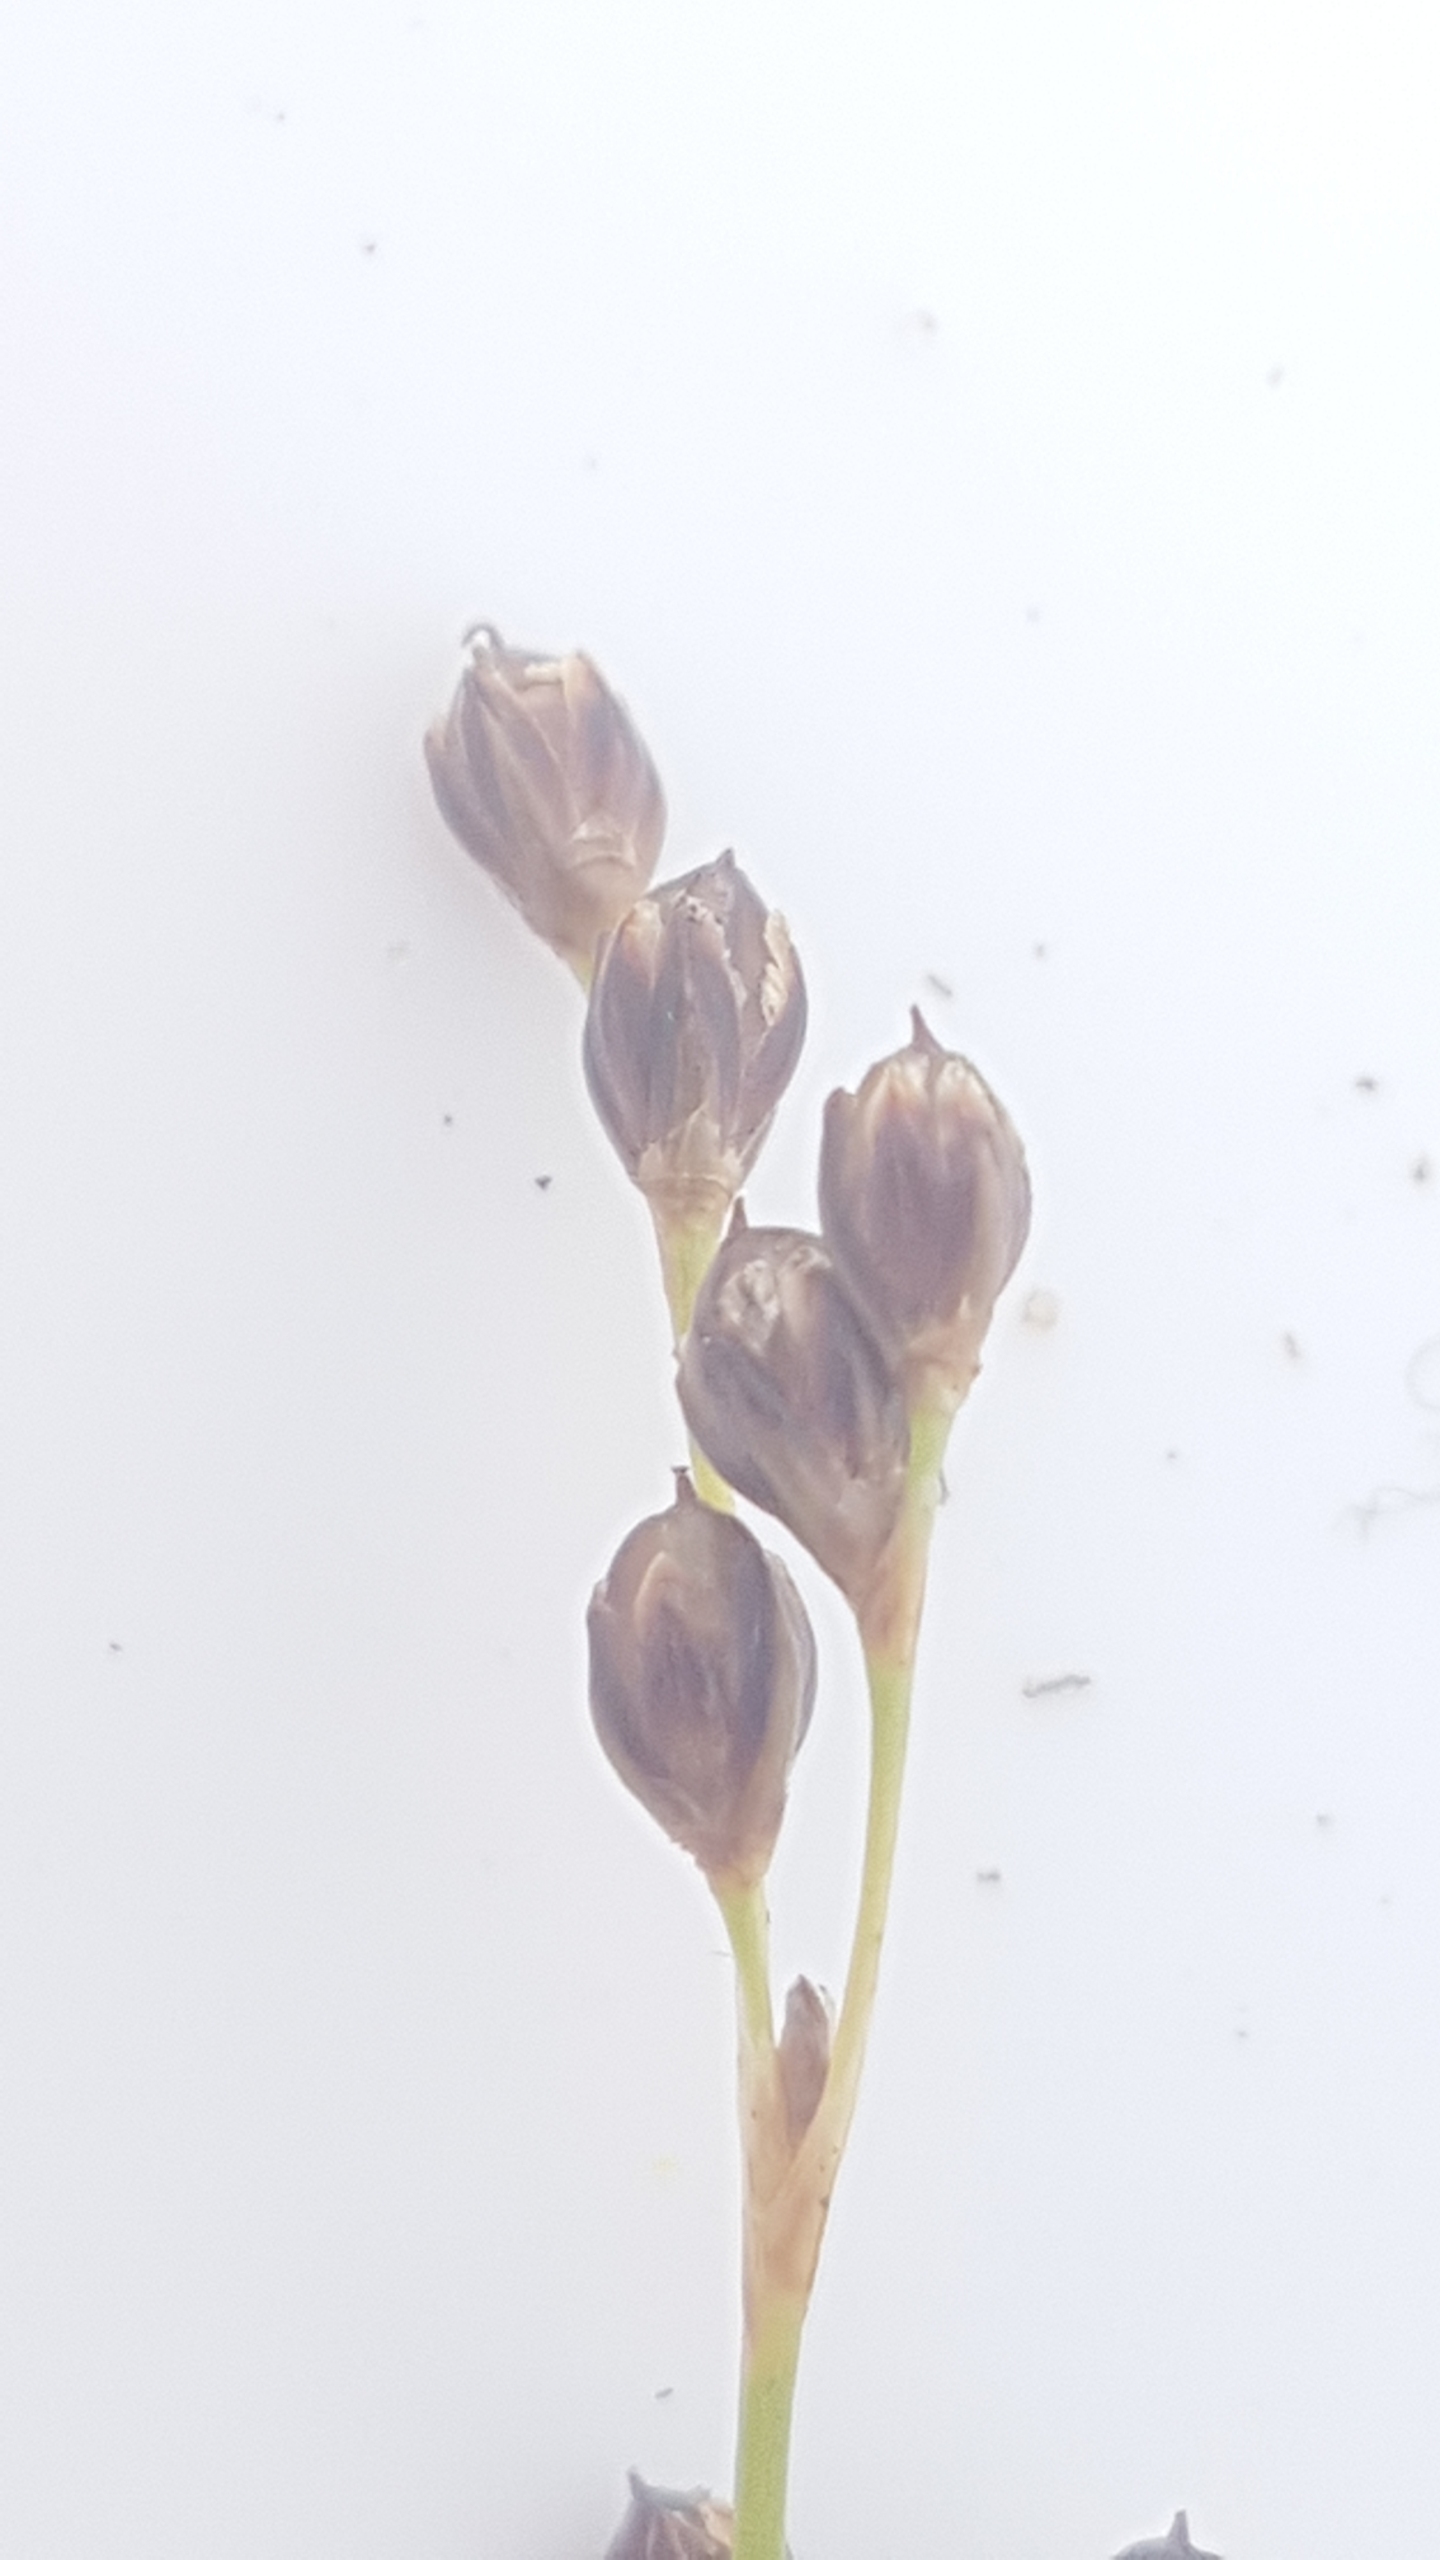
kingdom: Plantae
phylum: Tracheophyta
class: Liliopsida
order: Poales
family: Juncaceae
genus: Juncus
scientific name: Juncus gerardi
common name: Harril
